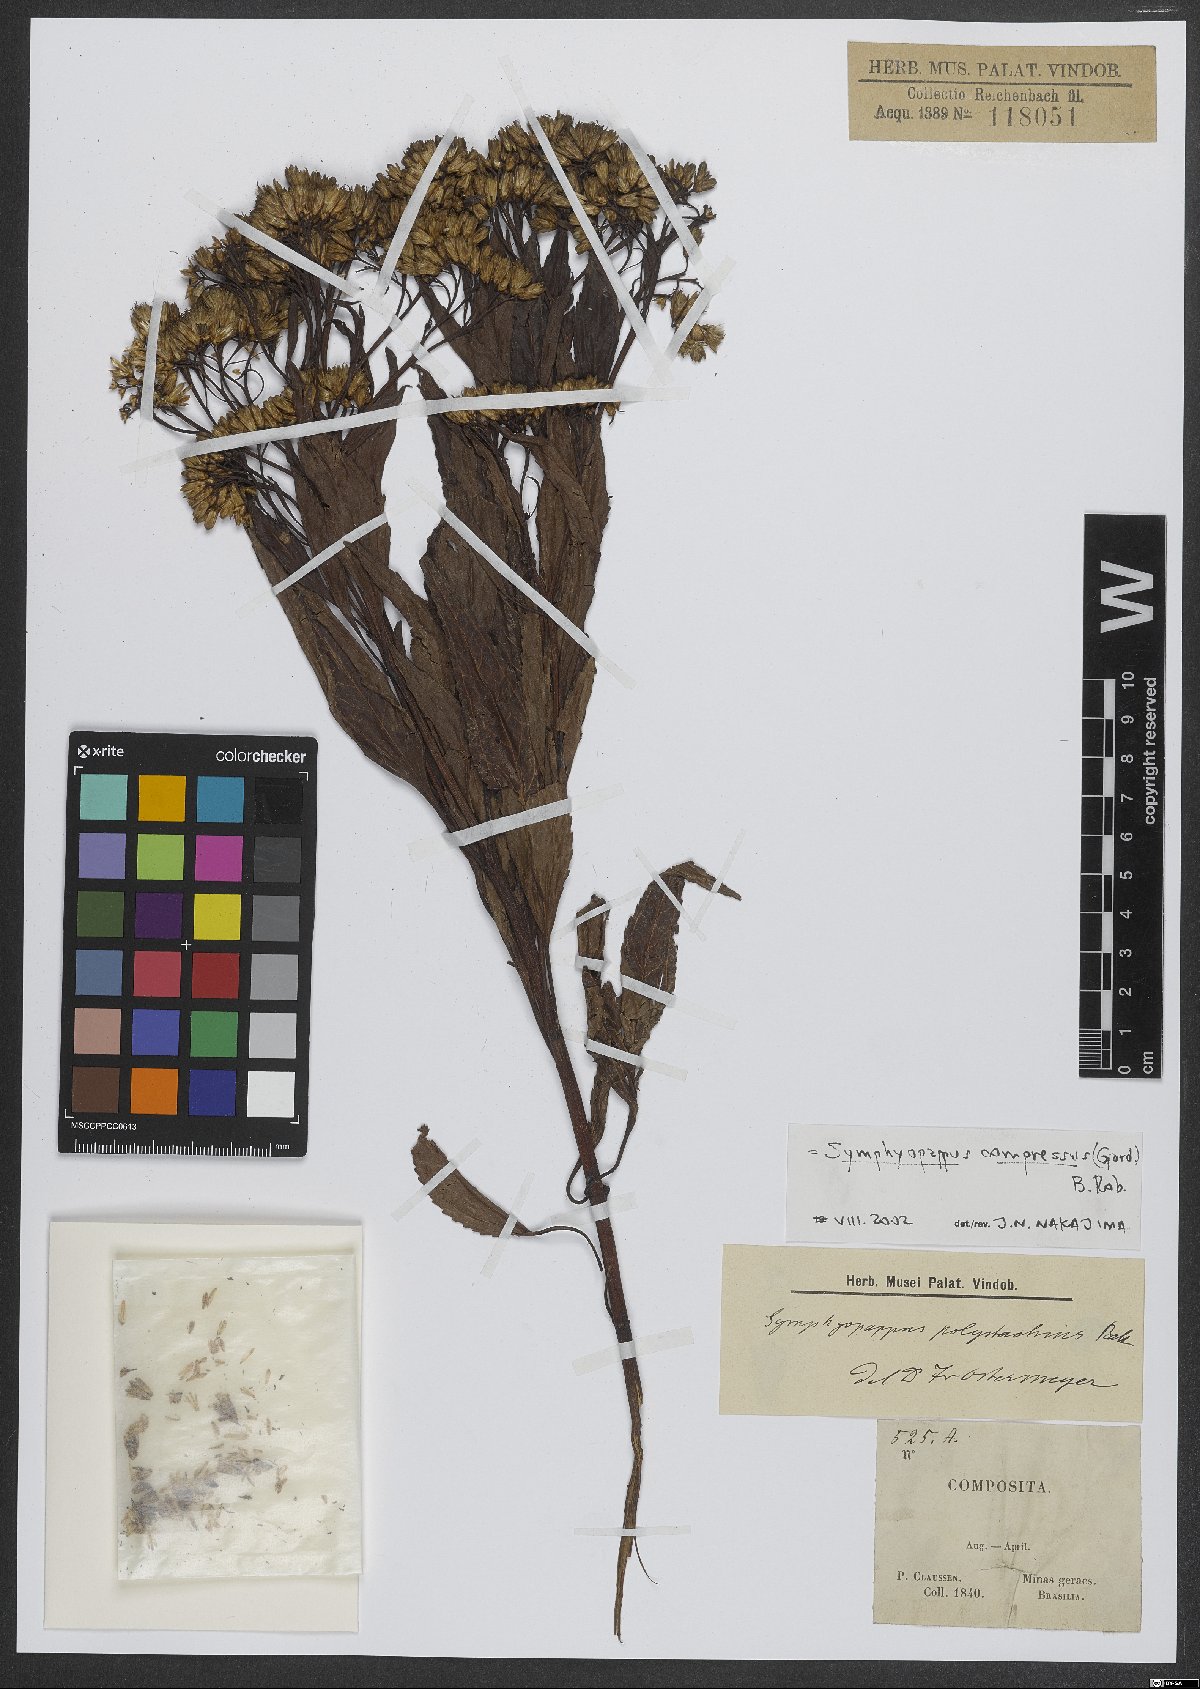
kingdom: Plantae
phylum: Tracheophyta
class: Magnoliopsida
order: Asterales
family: Asteraceae
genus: Symphyopappus
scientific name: Symphyopappus compressus
